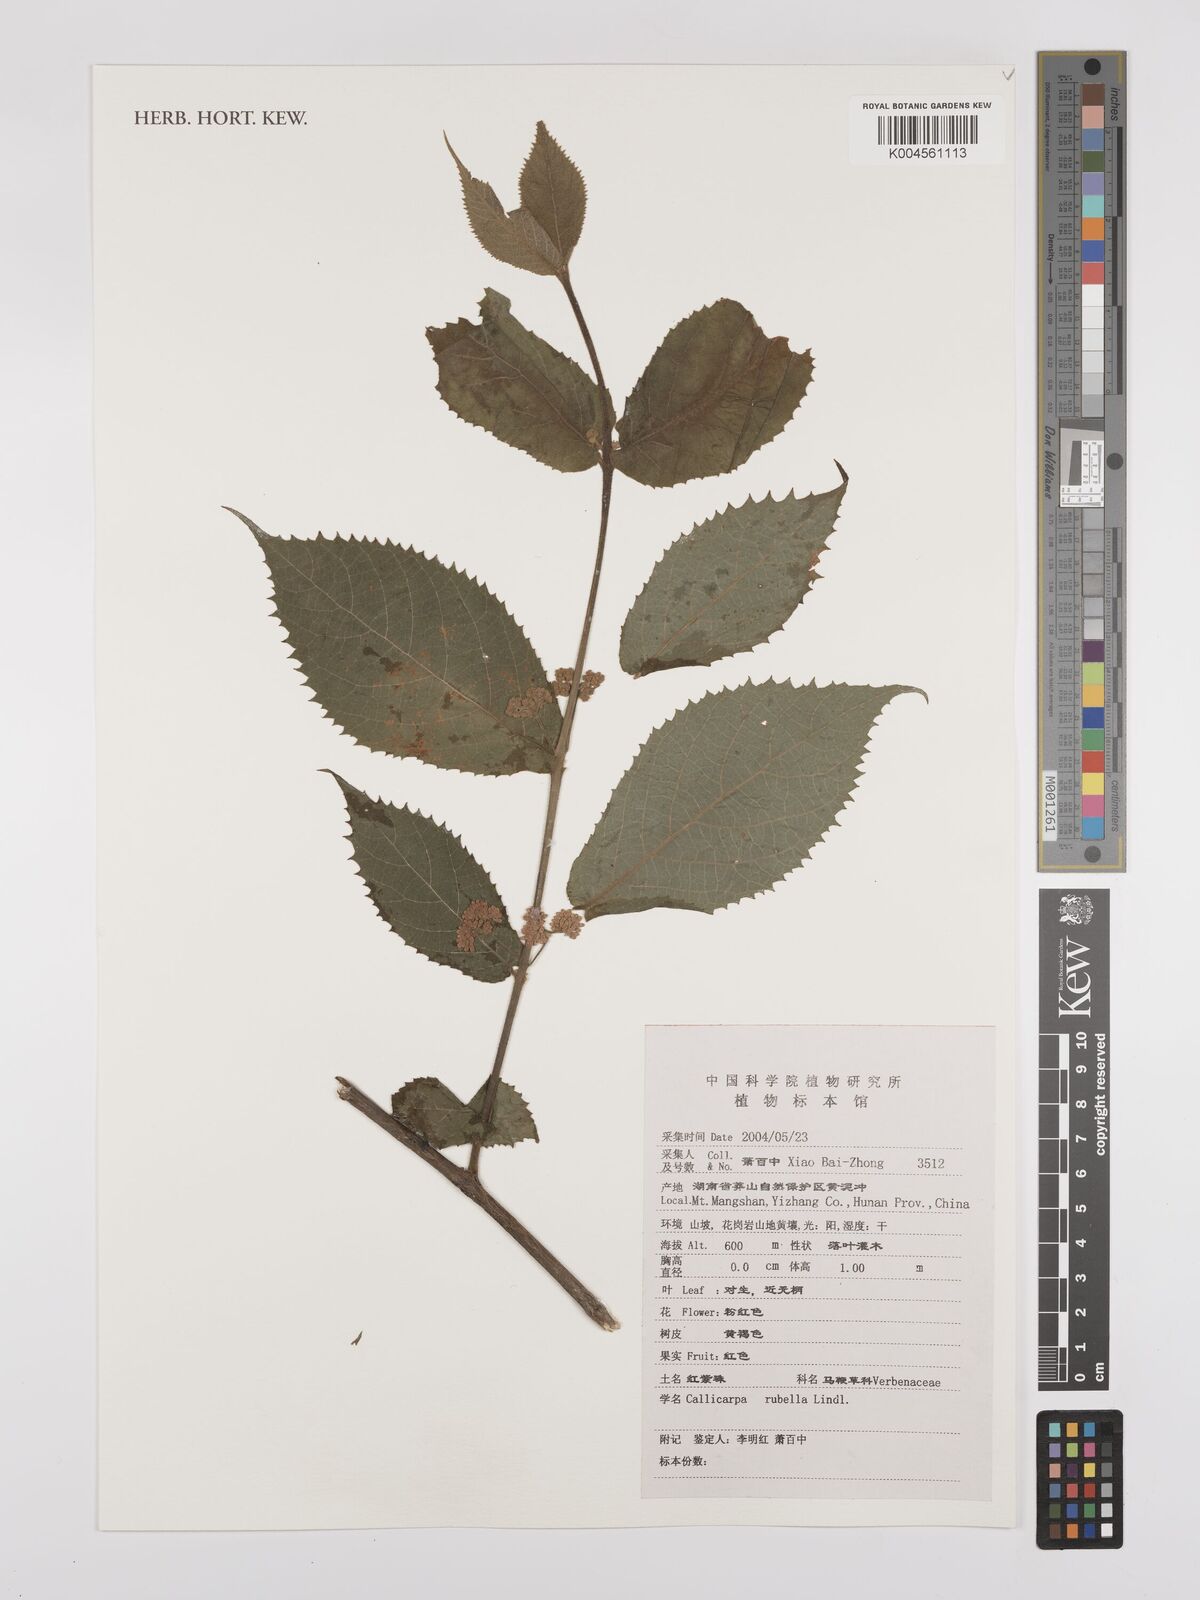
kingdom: Plantae
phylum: Tracheophyta
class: Magnoliopsida
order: Lamiales
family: Lamiaceae
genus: Callicarpa
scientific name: Callicarpa rubella
